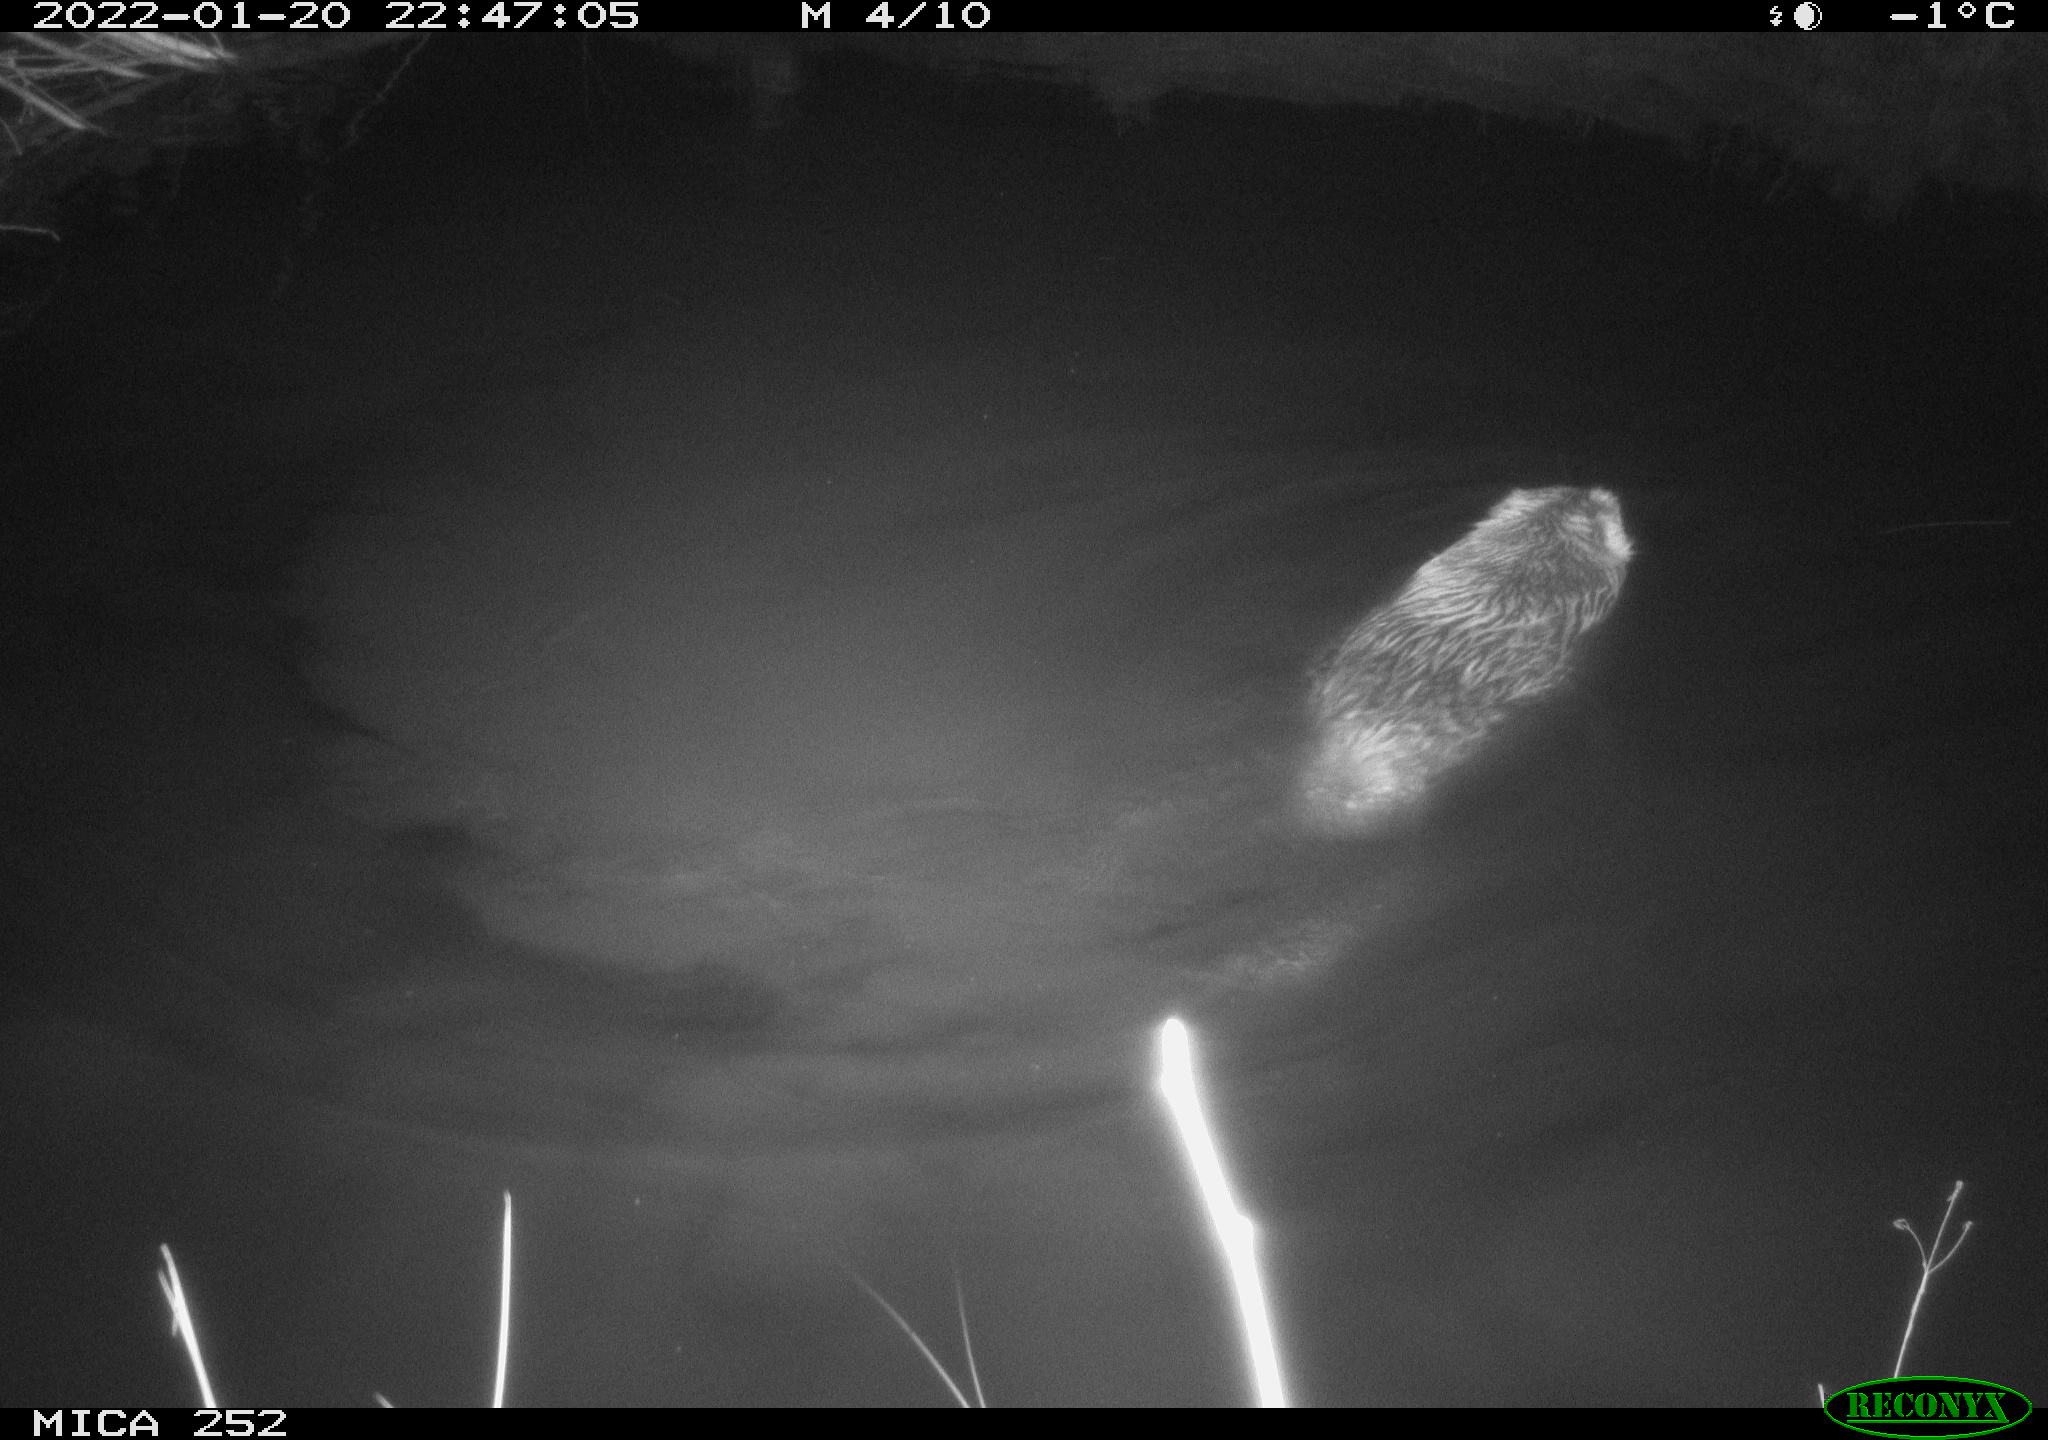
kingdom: Animalia
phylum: Chordata
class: Mammalia
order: Rodentia
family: Castoridae
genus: Castor
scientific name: Castor fiber
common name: Eurasian beaver
